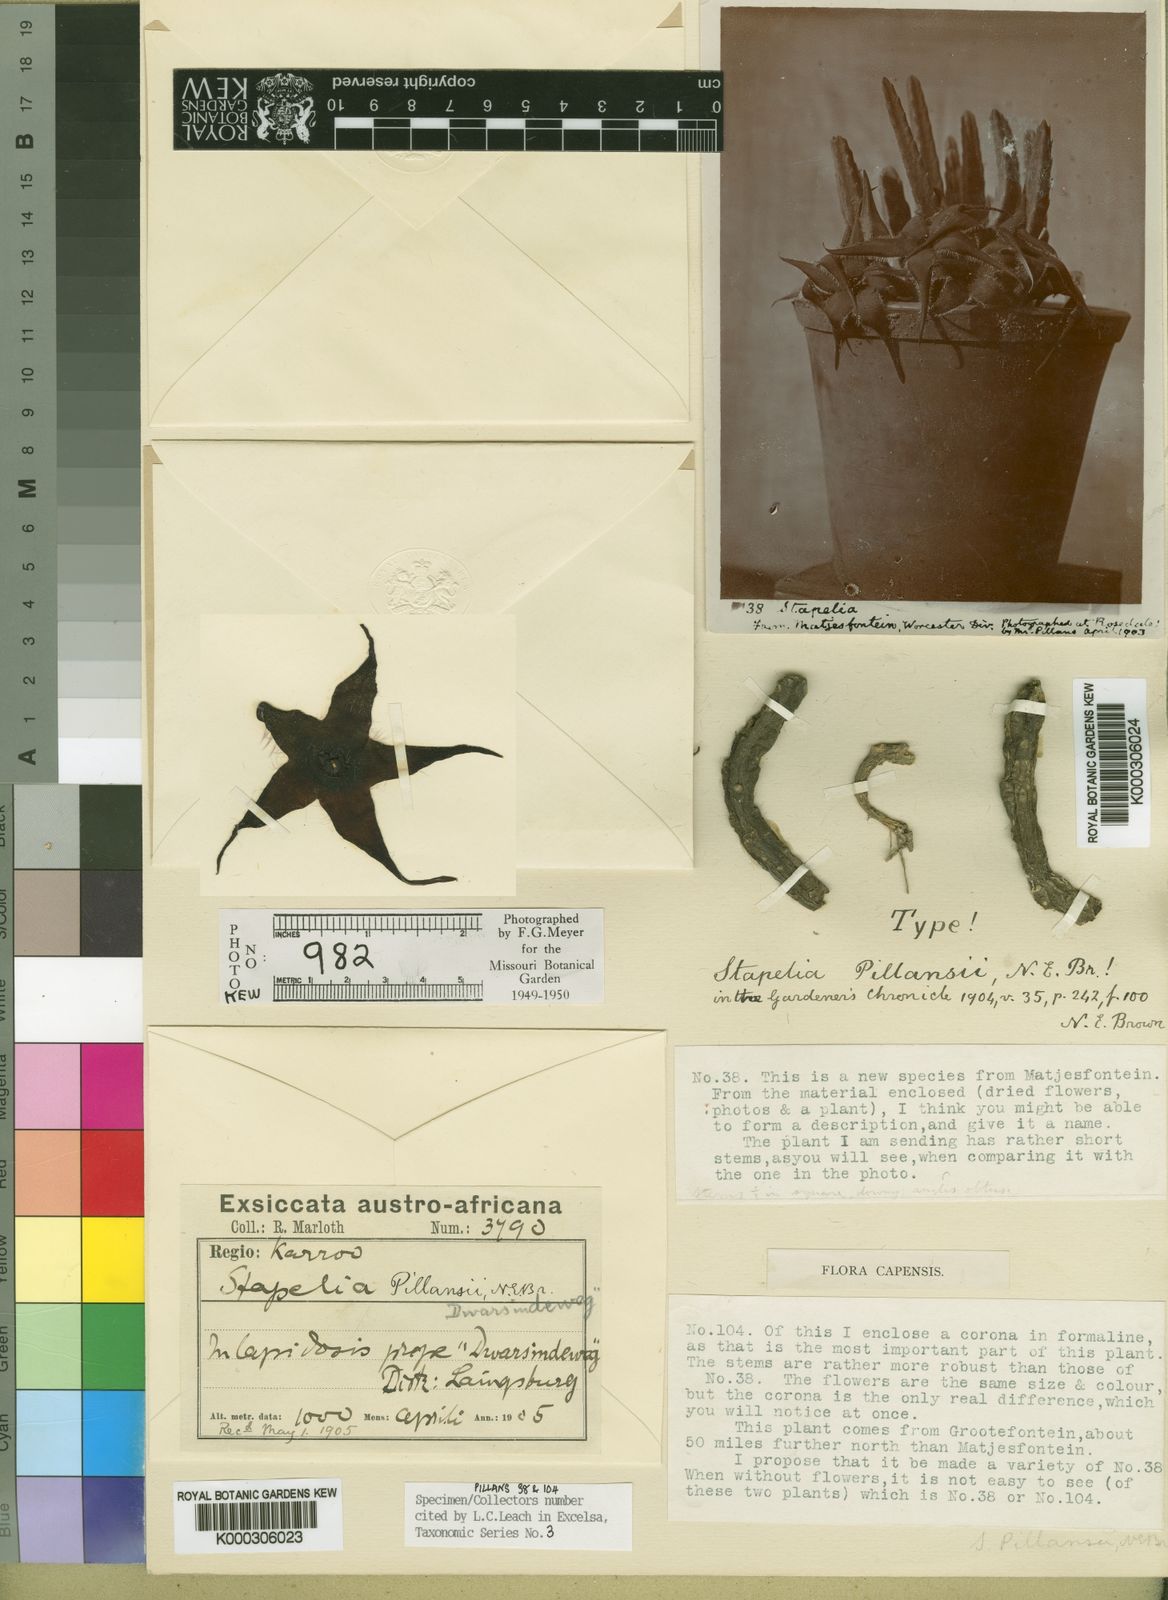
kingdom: Plantae
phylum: Tracheophyta
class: Magnoliopsida
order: Gentianales
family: Apocynaceae
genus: Ceropegia
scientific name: Ceropegia nevillepillansii
